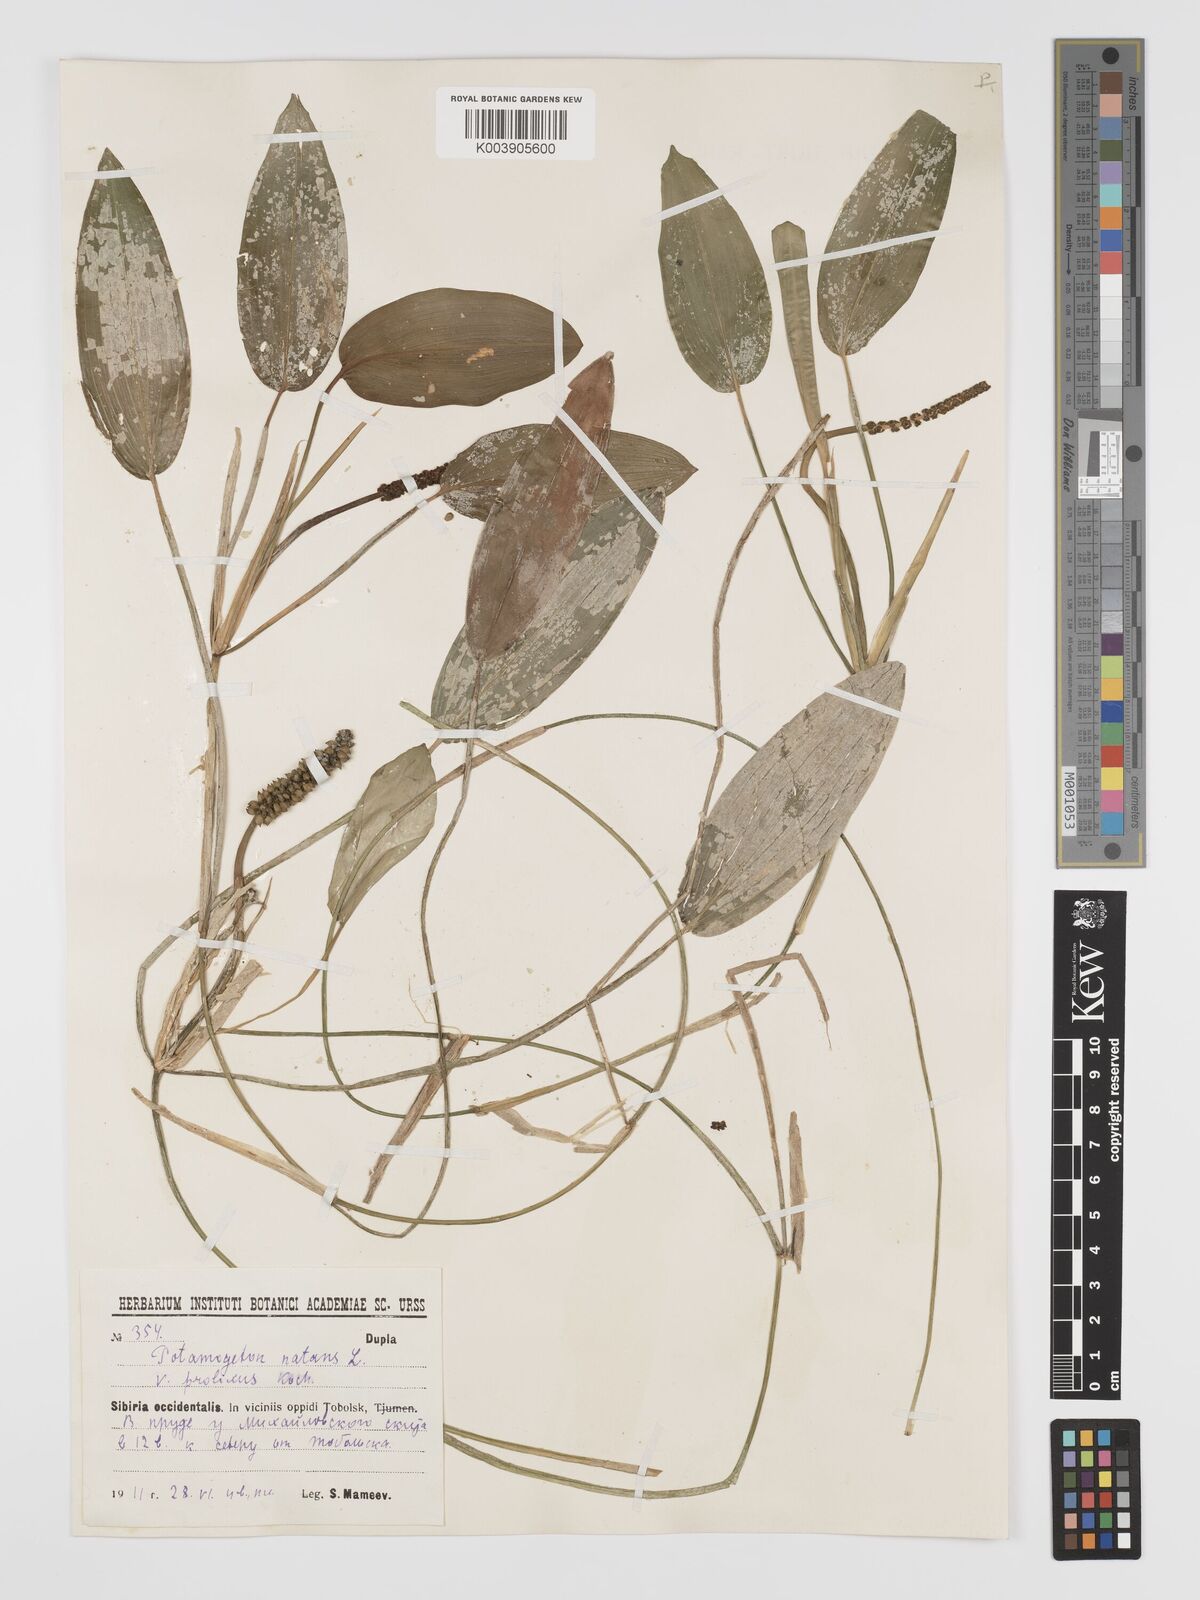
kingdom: Plantae
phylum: Tracheophyta
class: Liliopsida
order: Alismatales
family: Potamogetonaceae
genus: Potamogeton
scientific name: Potamogeton natans
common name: Broad-leaved pondweed
